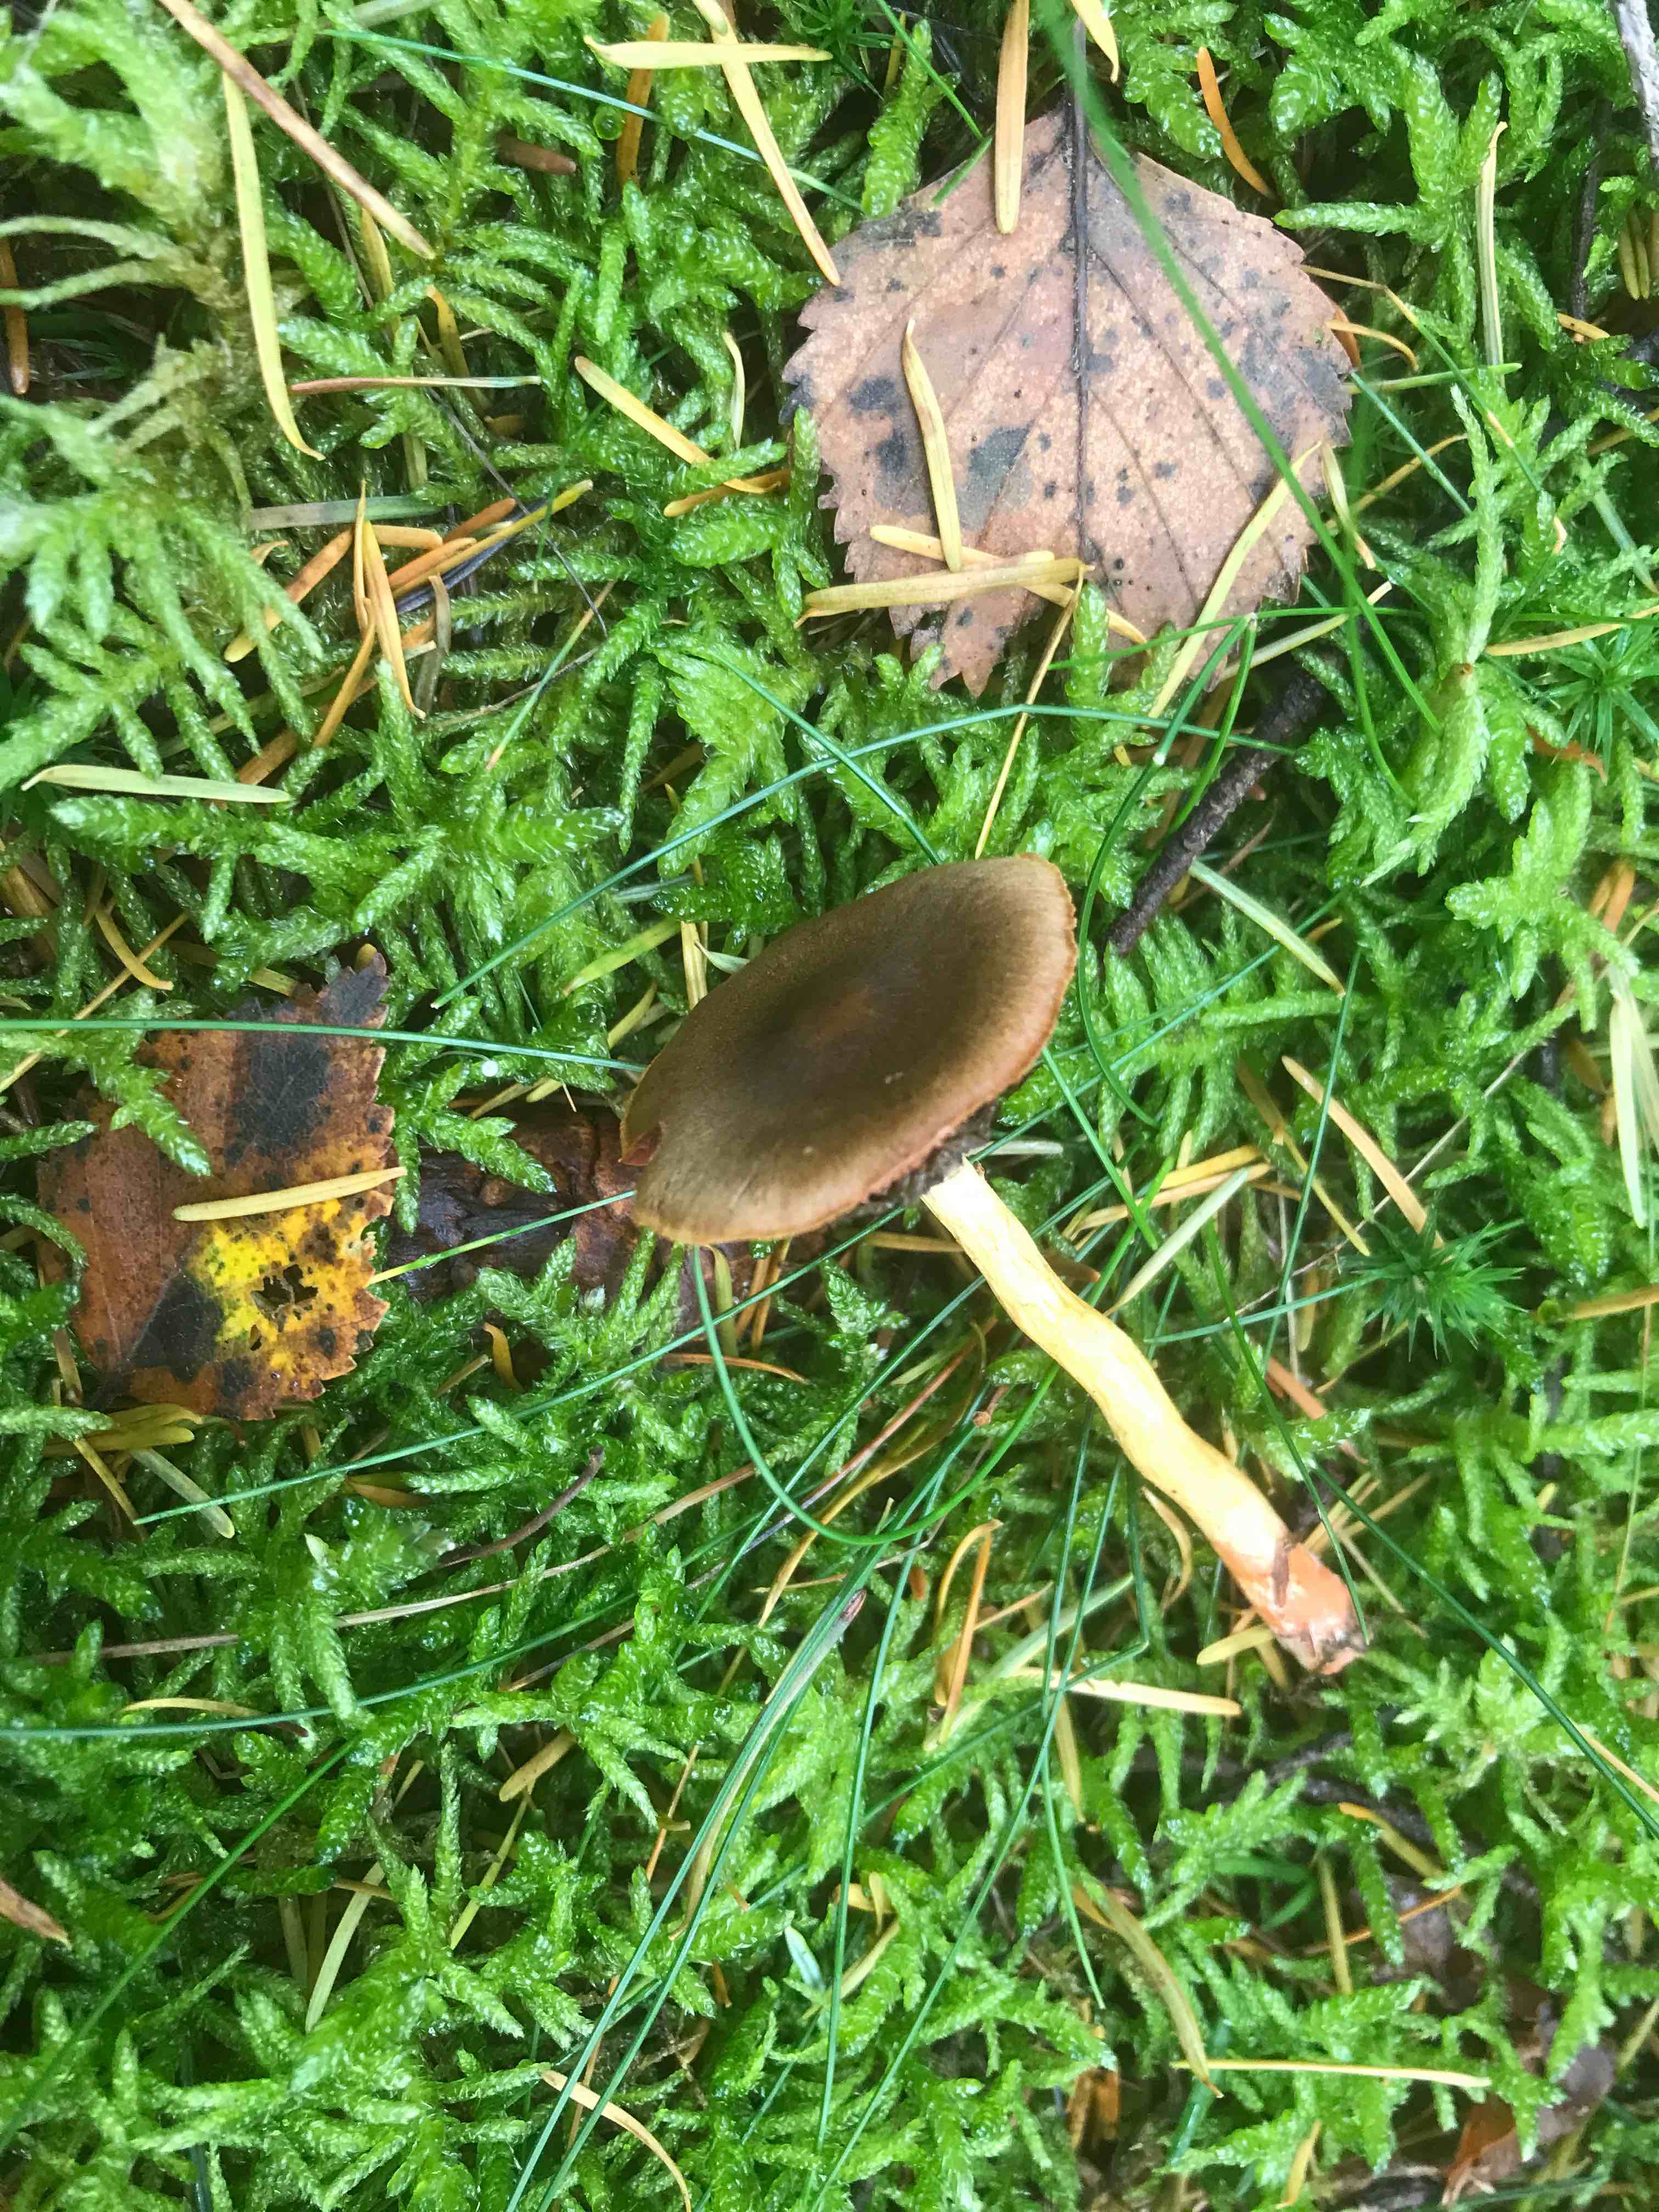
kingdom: Fungi
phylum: Basidiomycota
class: Agaricomycetes
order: Agaricales
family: Cortinariaceae
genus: Cortinarius
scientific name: Cortinarius
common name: cinnoberbladet slørhat
